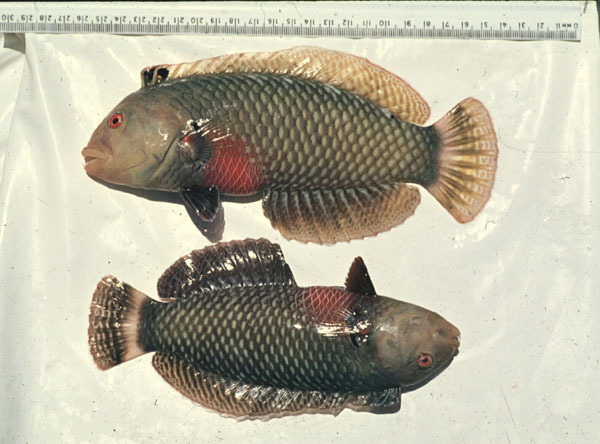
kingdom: Animalia
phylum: Chordata
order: Perciformes
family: Labridae
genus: Novaculichthys
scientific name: Novaculichthys taeniourus
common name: Rockmover wrasse
